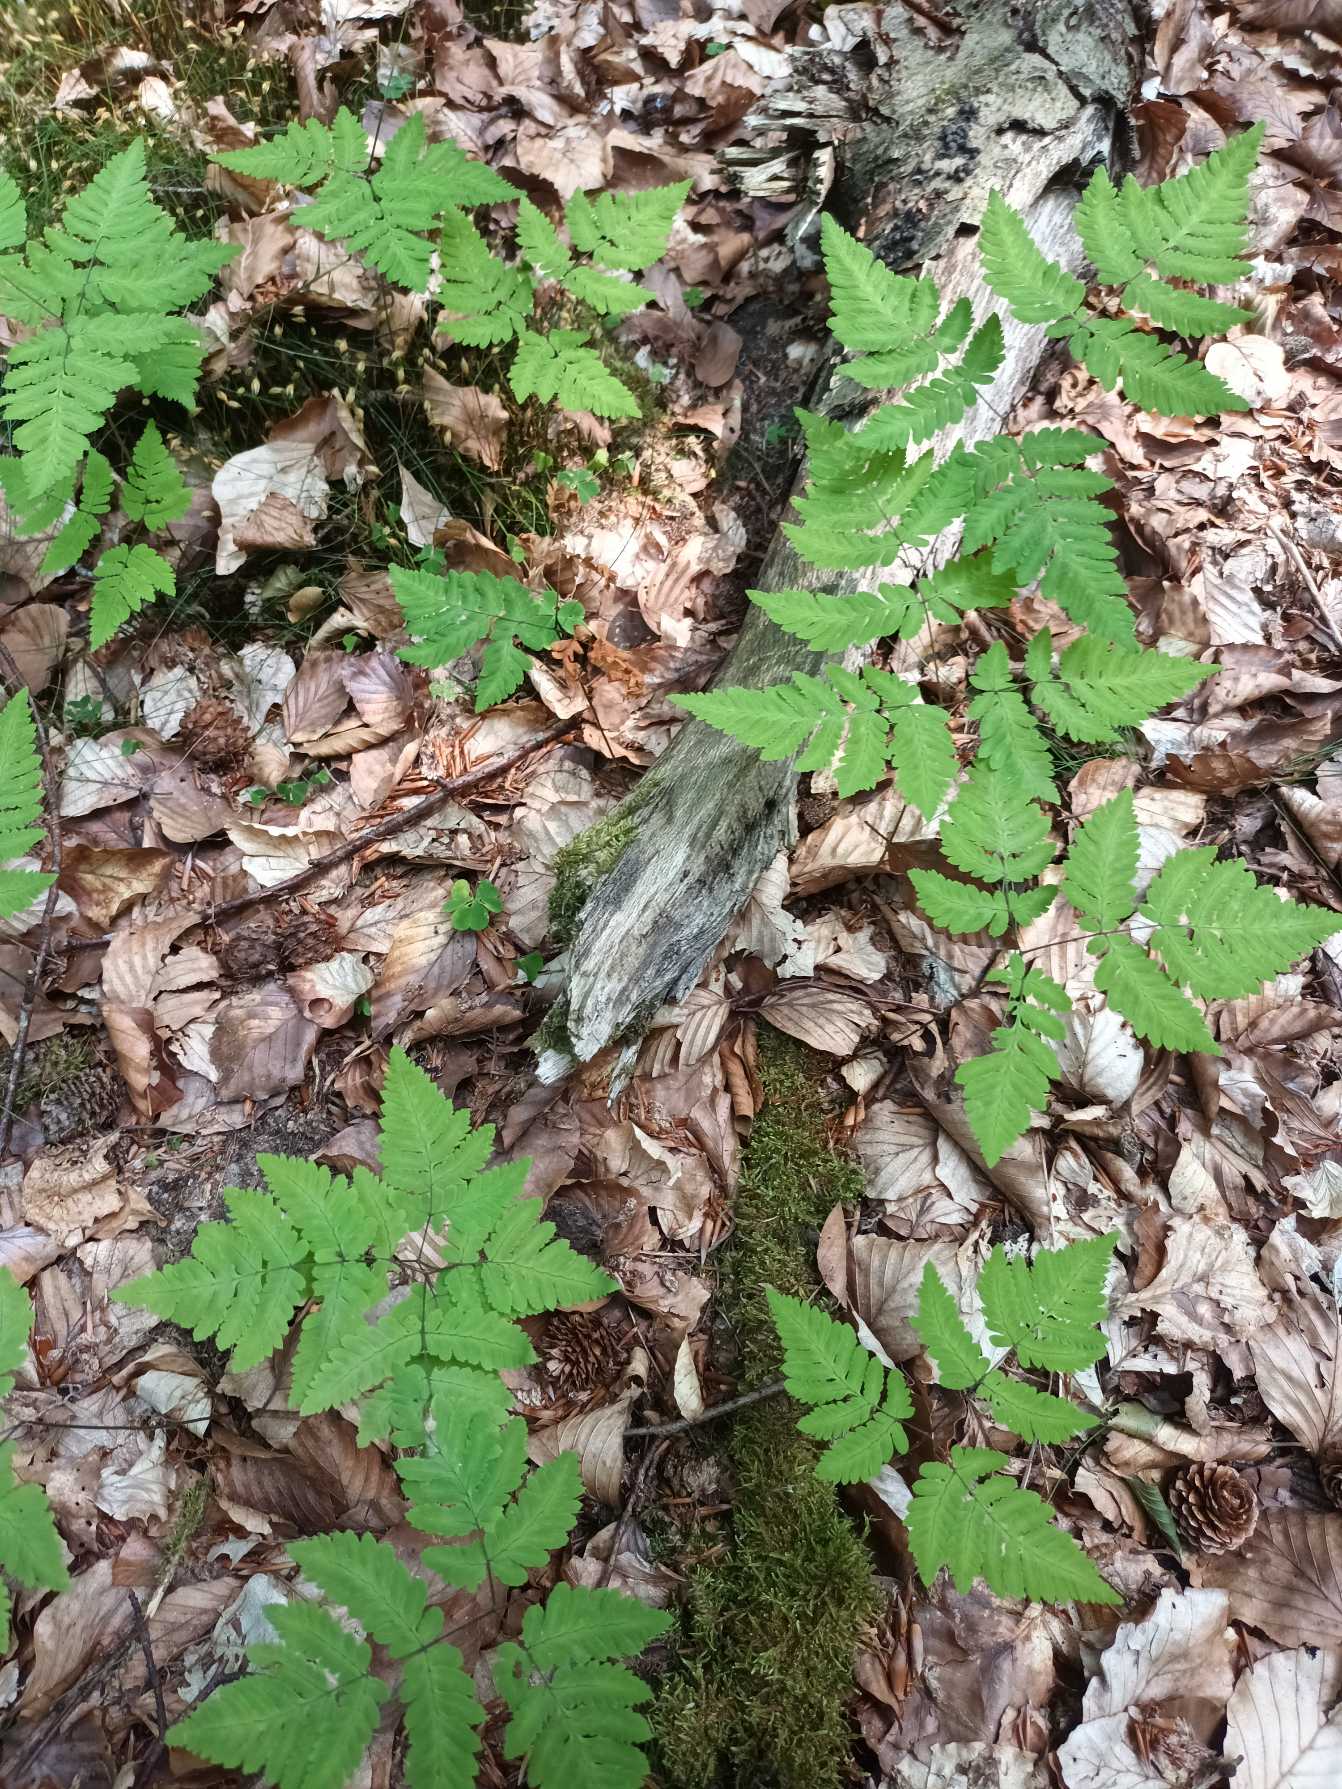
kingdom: Plantae
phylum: Tracheophyta
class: Polypodiopsida
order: Polypodiales
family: Cystopteridaceae
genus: Gymnocarpium
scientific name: Gymnocarpium dryopteris
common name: Tredelt egebregne
